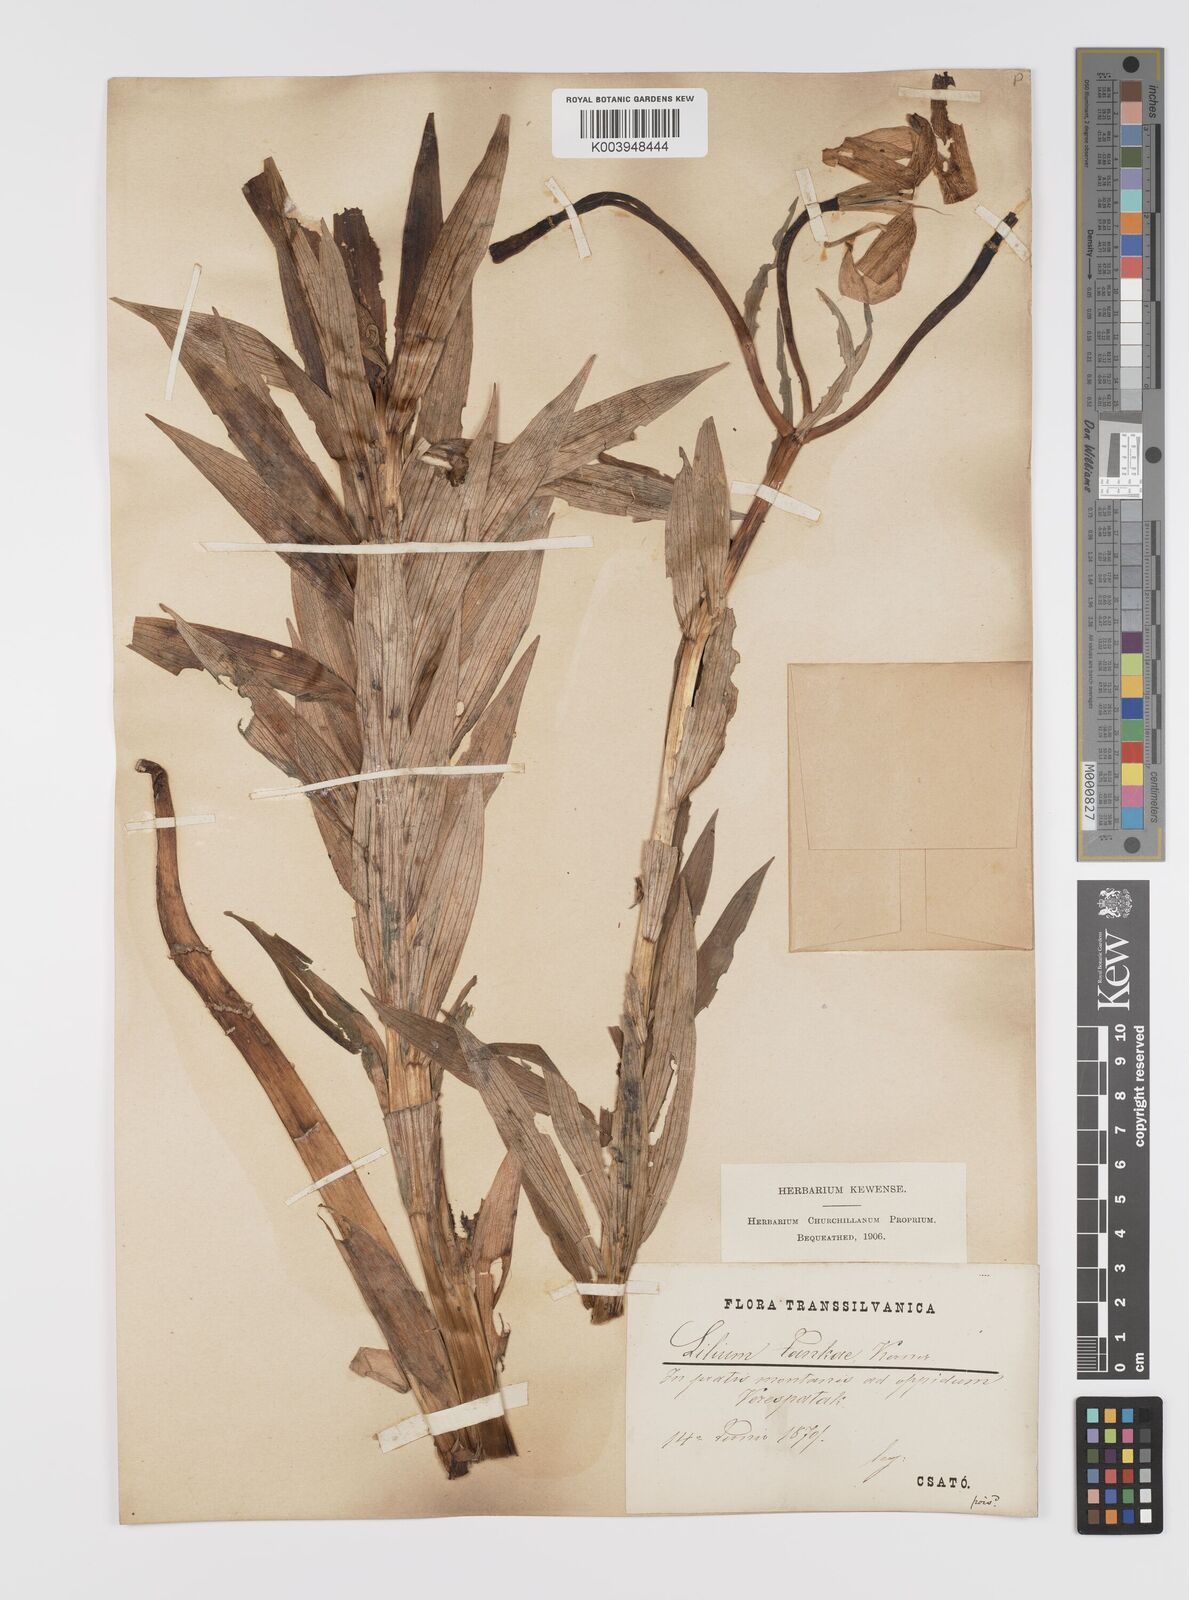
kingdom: Plantae
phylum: Tracheophyta
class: Liliopsida
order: Liliales
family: Liliaceae
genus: Lilium
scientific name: Lilium jankae
